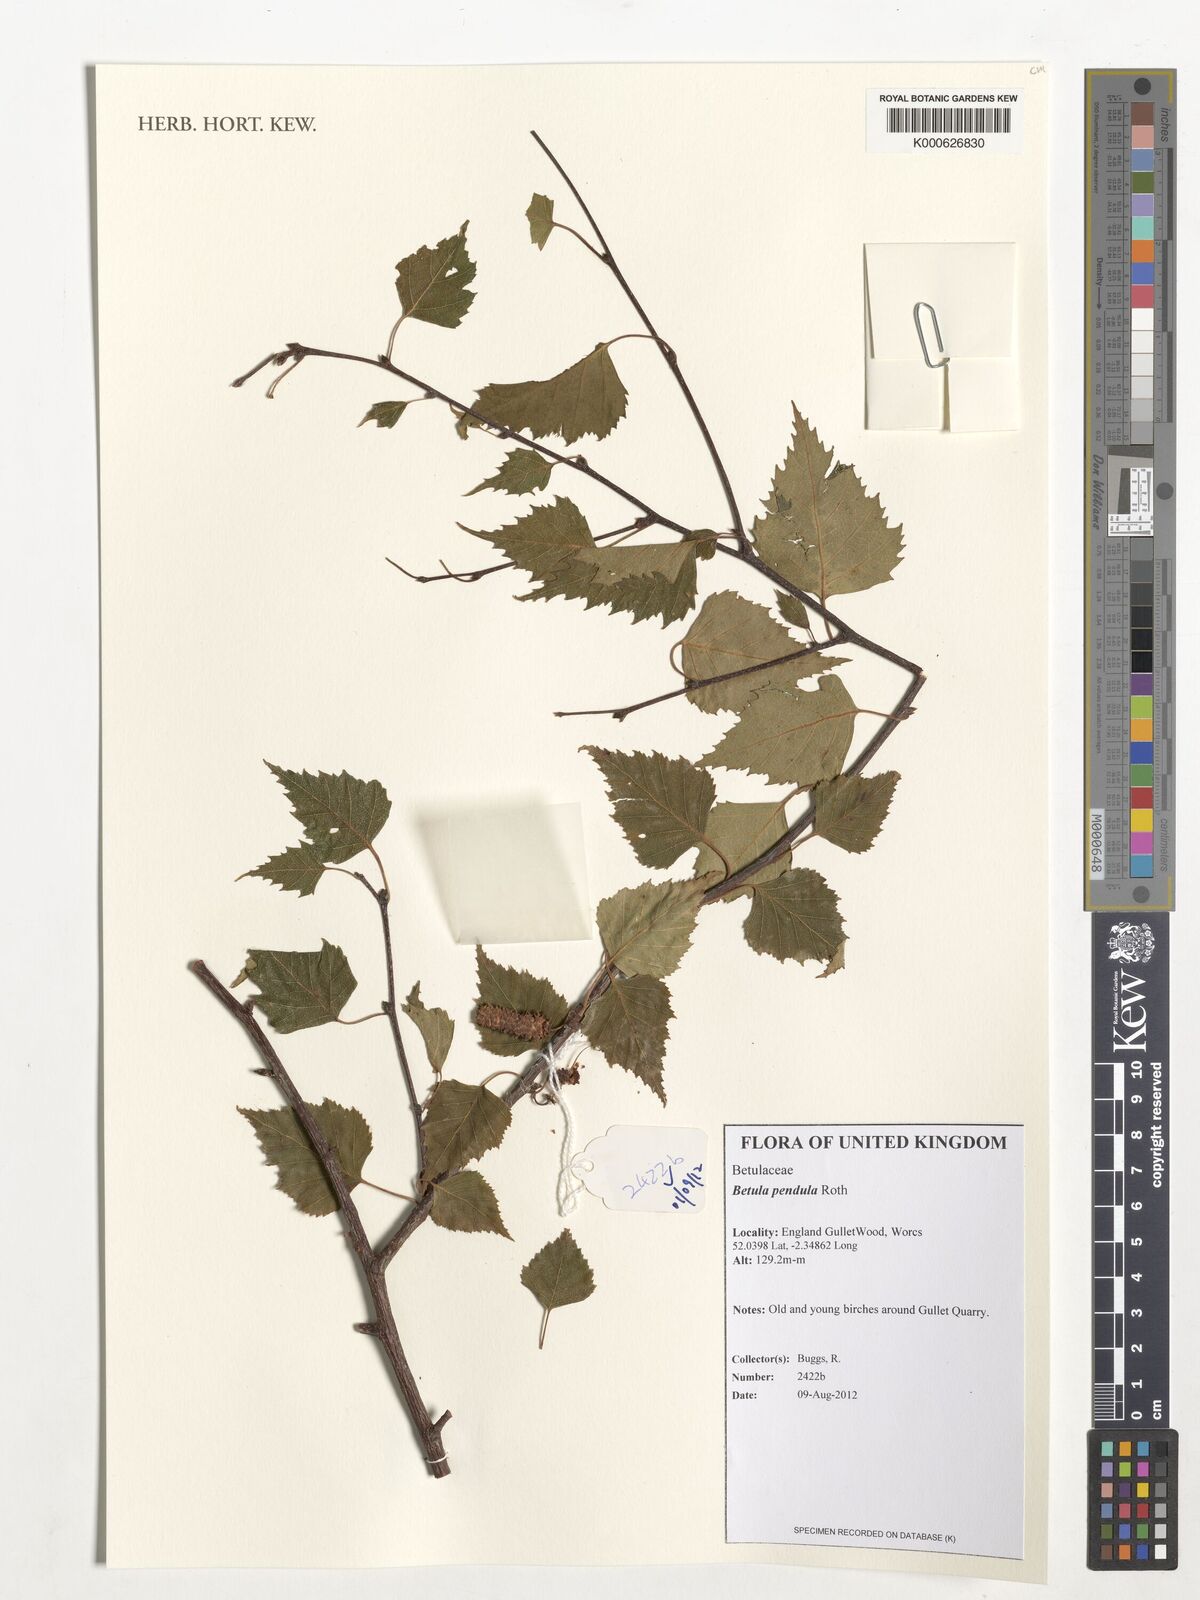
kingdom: Plantae
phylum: Tracheophyta
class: Magnoliopsida
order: Fagales
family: Betulaceae
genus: Betula
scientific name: Betula pendula
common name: Silver birch
